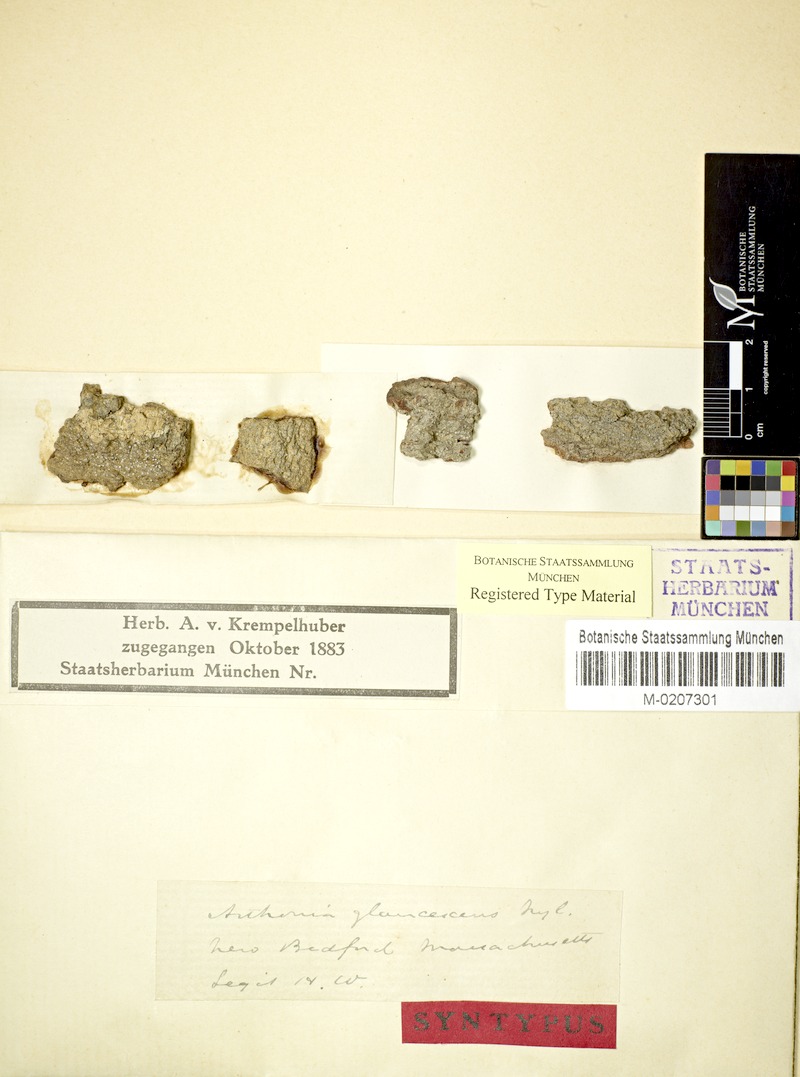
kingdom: Fungi
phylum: Ascomycota
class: Arthoniomycetes
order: Arthoniales
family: Roccellaceae
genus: Schismatomma
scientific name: Schismatomma glaucescens
